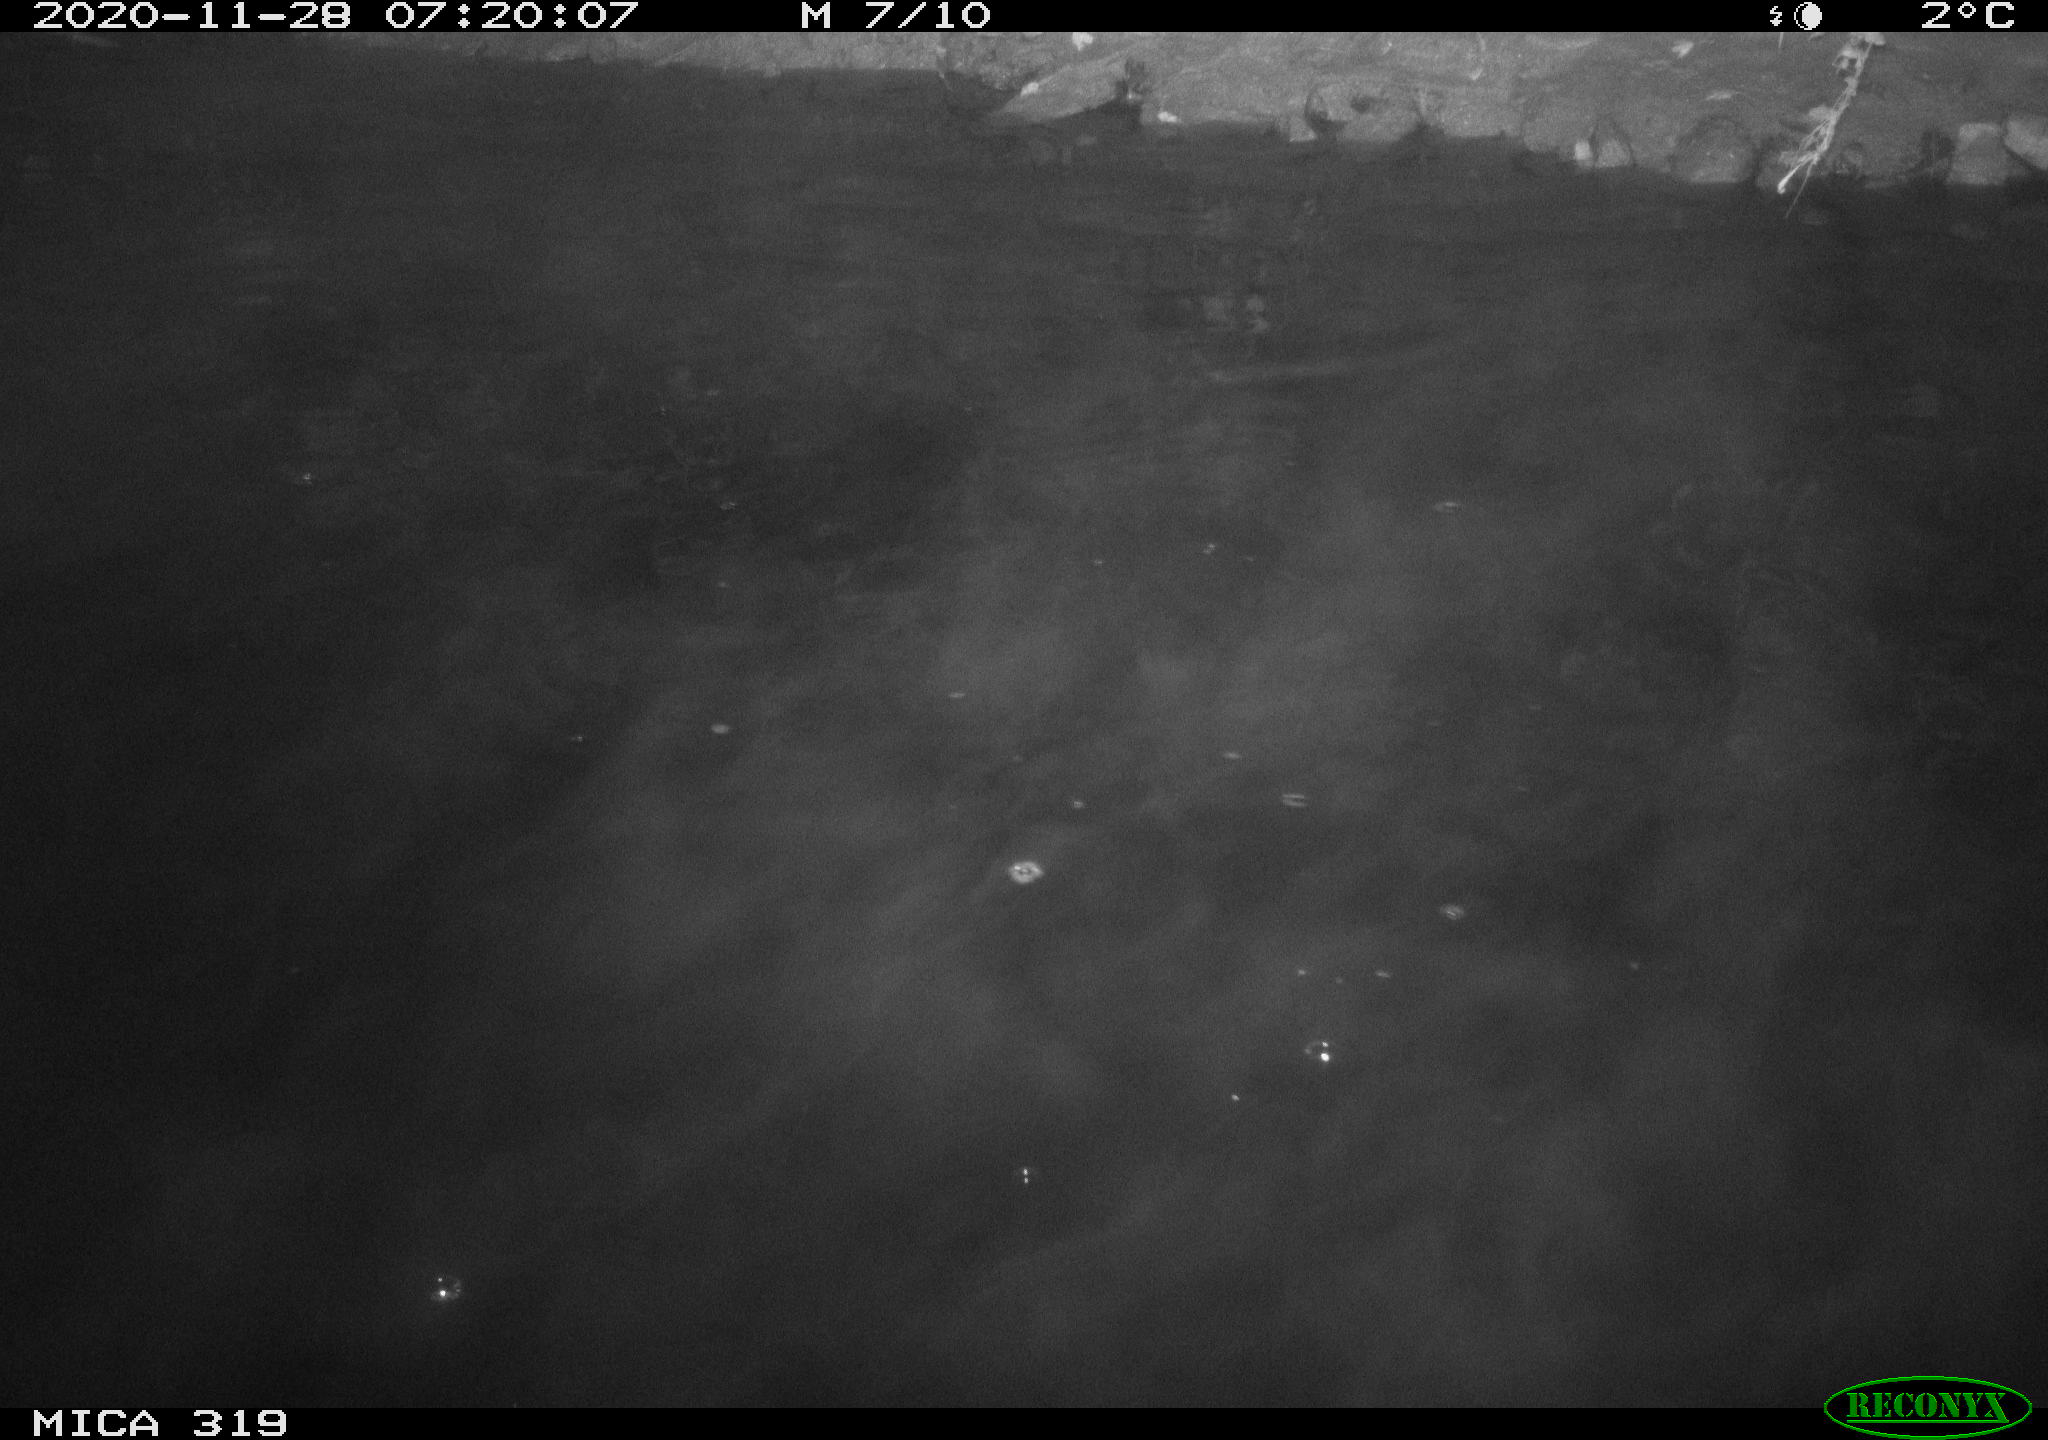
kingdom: Animalia
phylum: Chordata
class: Aves
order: Anseriformes
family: Anatidae
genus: Anas
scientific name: Anas platyrhynchos
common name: Mallard
